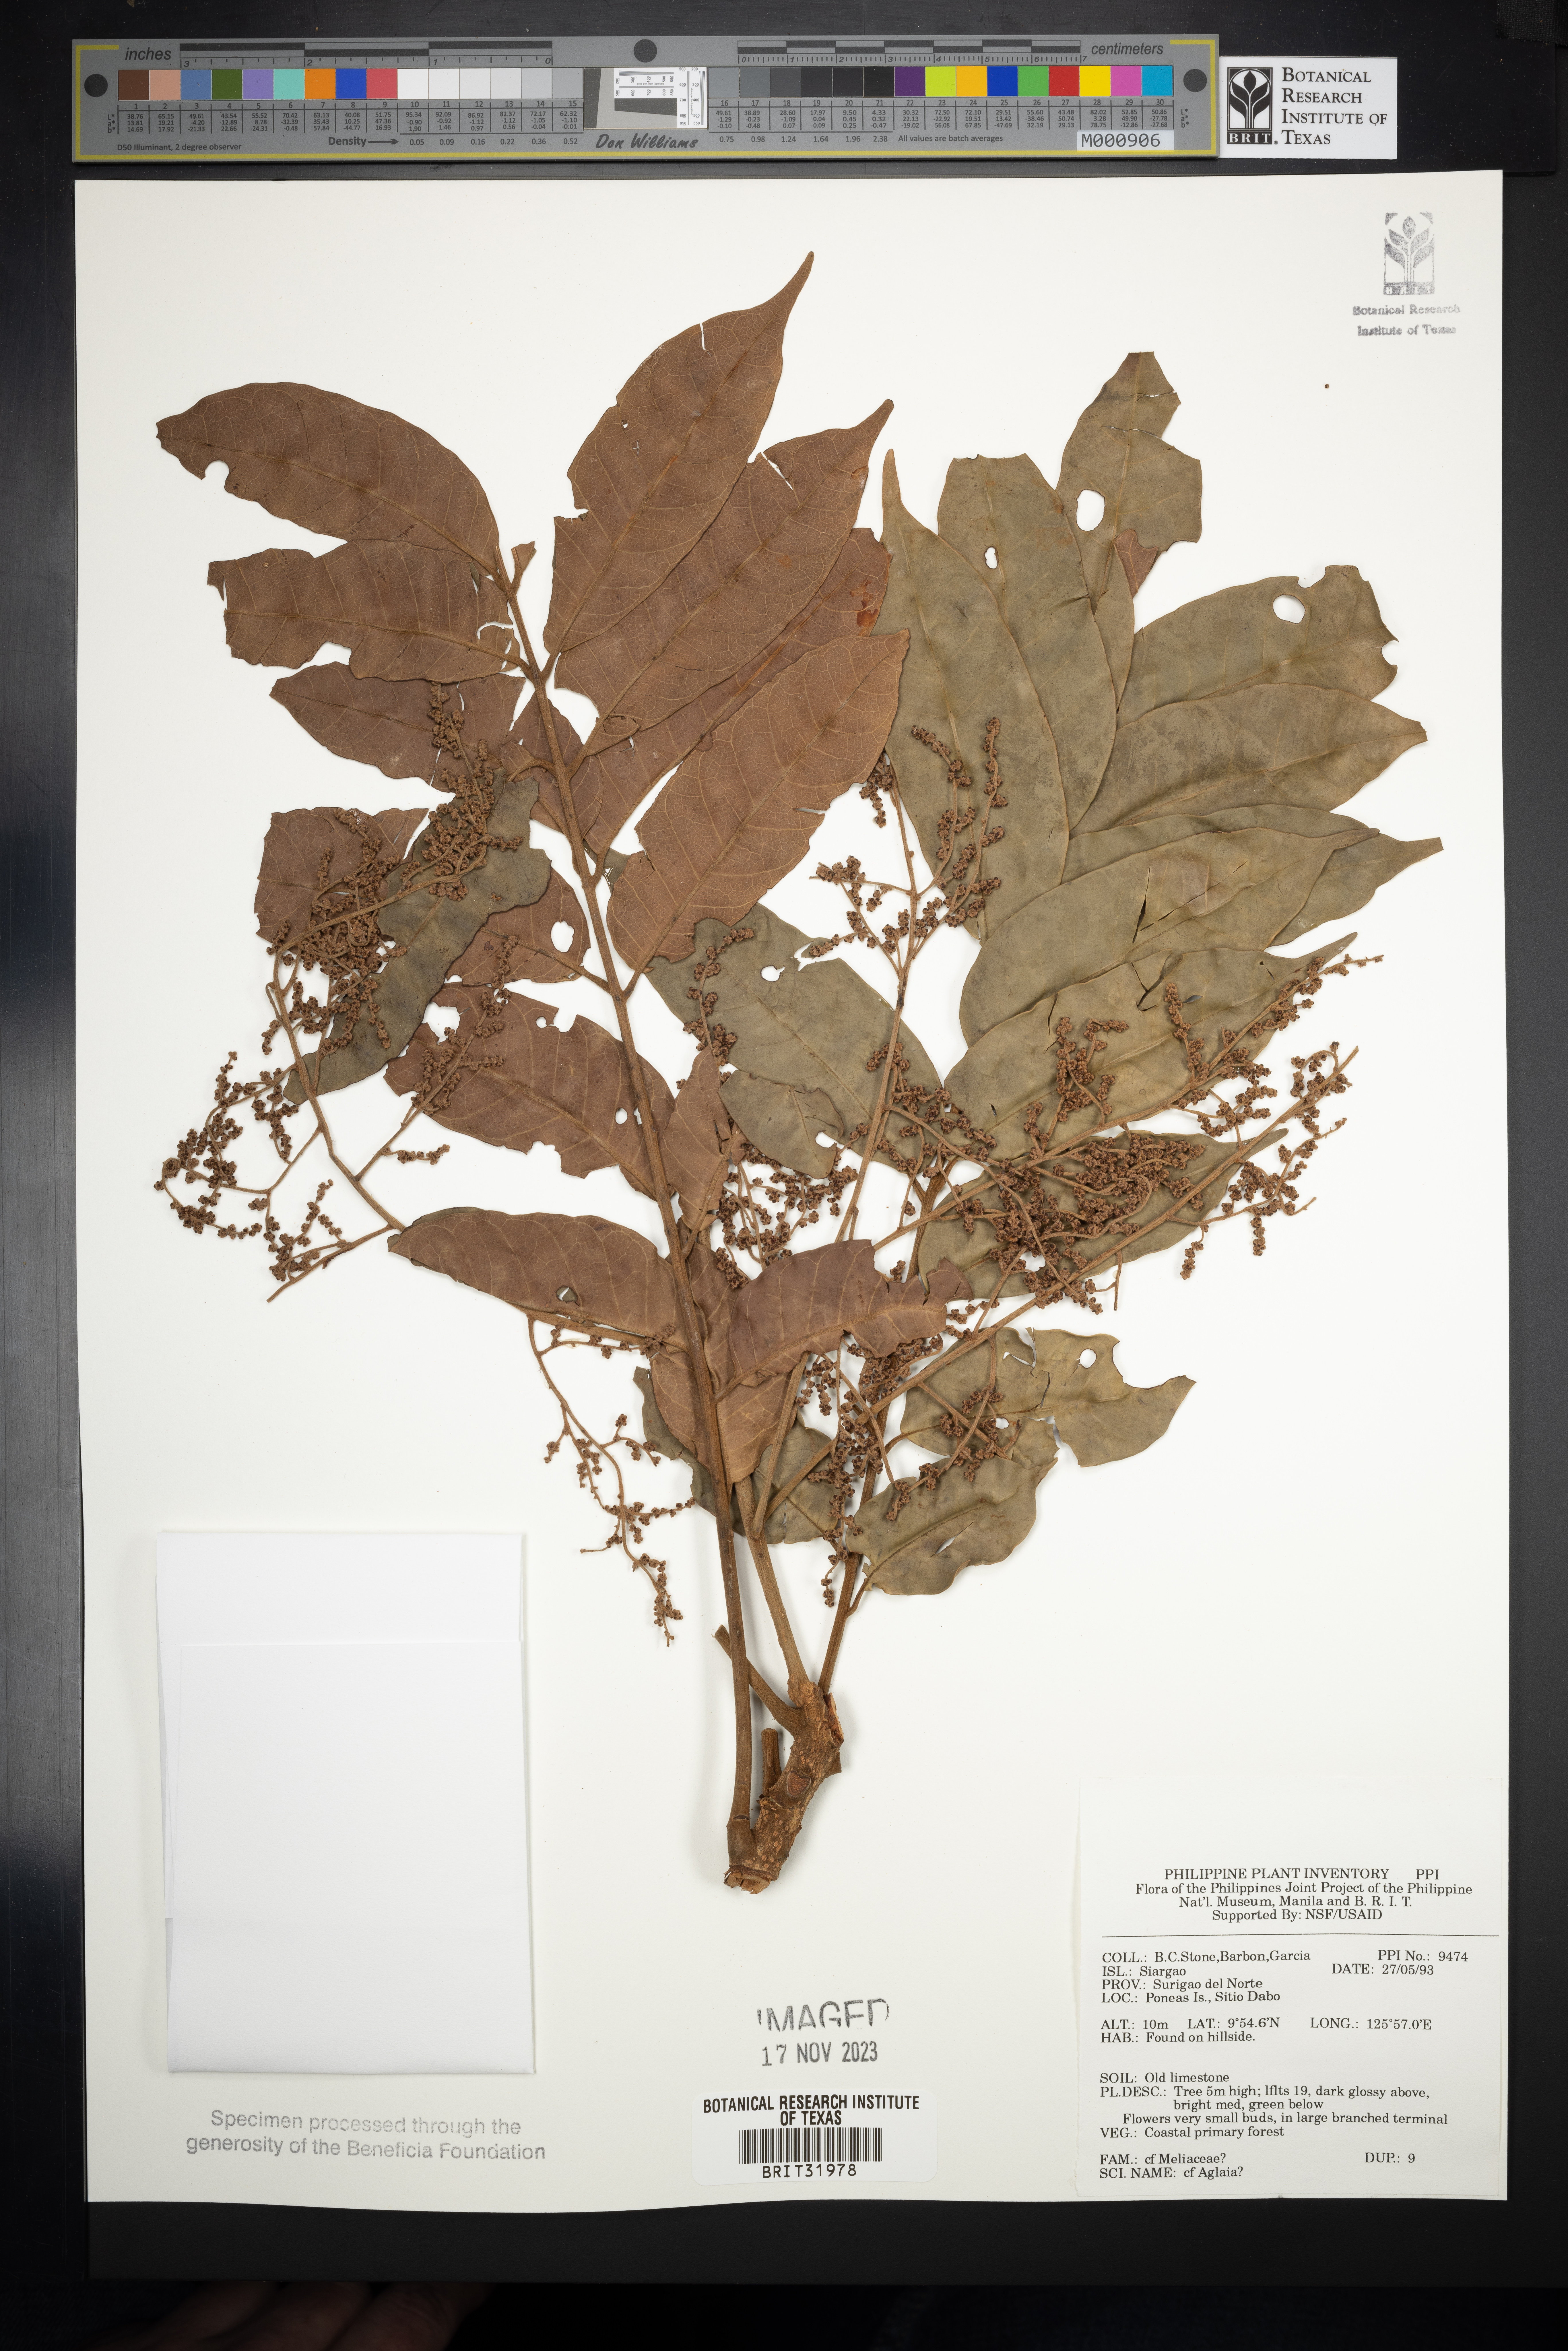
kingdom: Plantae
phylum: Tracheophyta
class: Magnoliopsida
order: Sapindales
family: Meliaceae
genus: Aglaia
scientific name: Aglaia
